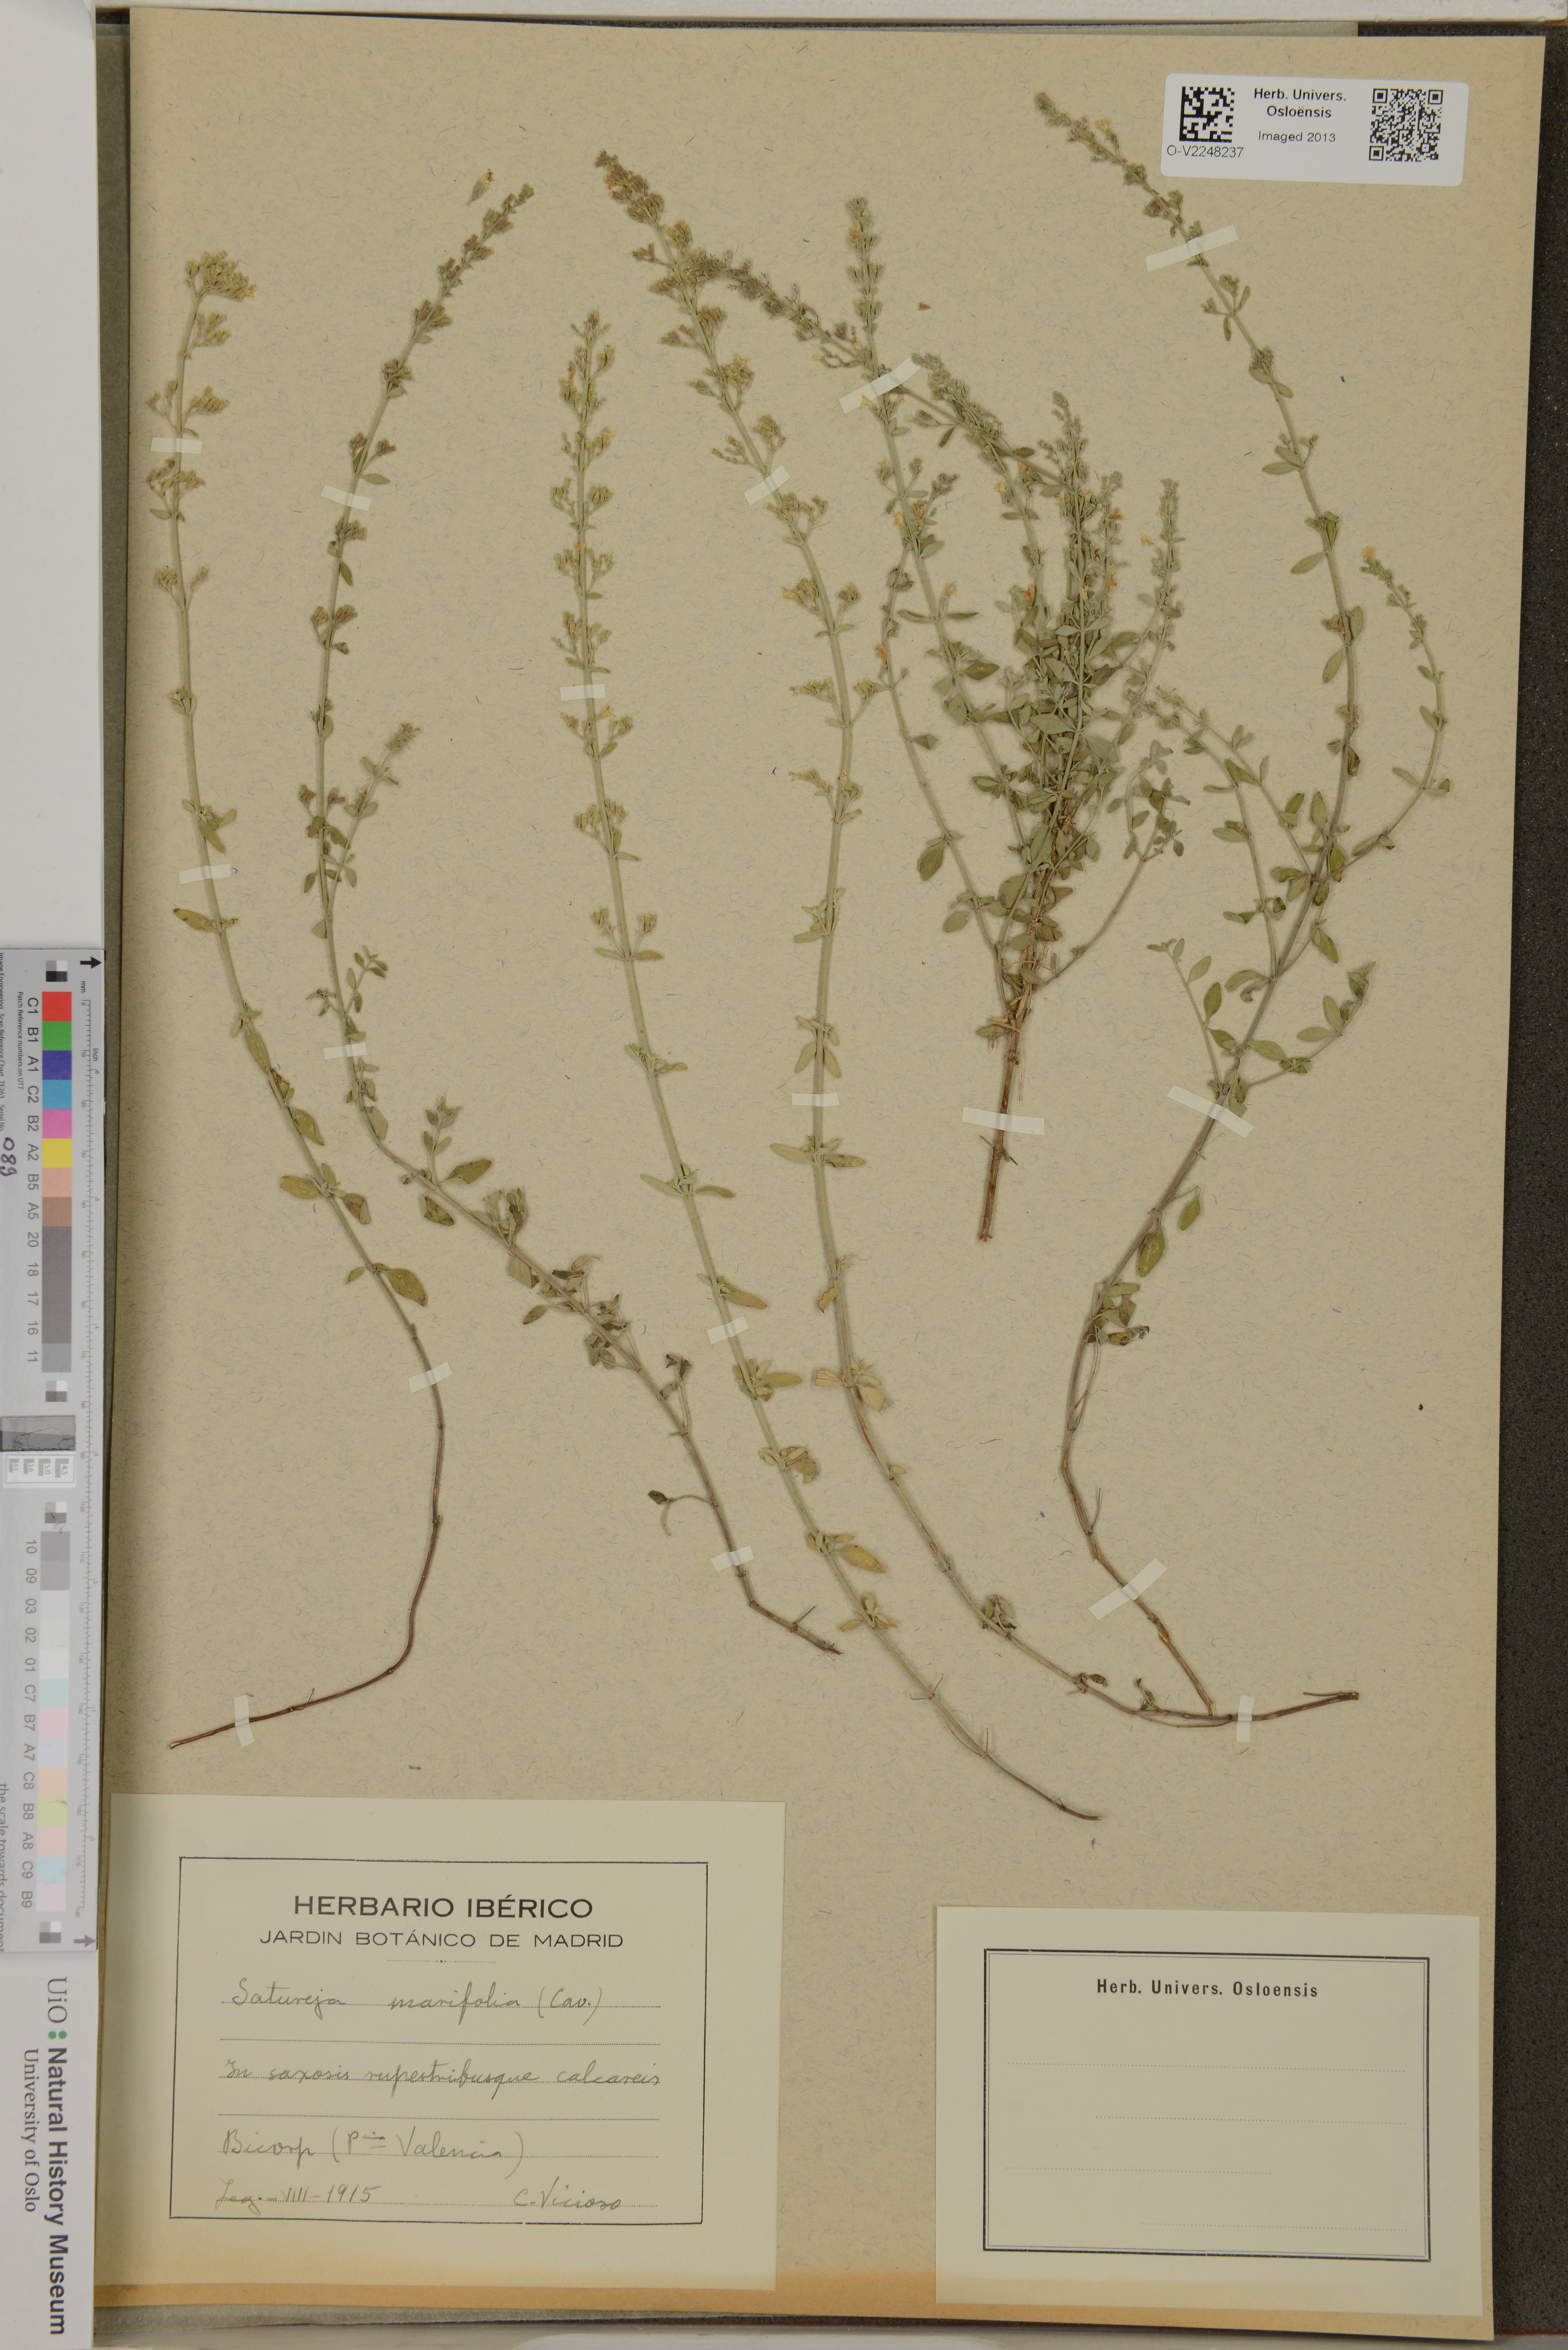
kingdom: Plantae
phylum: Tracheophyta
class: Magnoliopsida
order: Lamiales
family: Lamiaceae
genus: Clinopodium
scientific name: Clinopodium serpyllifolium
